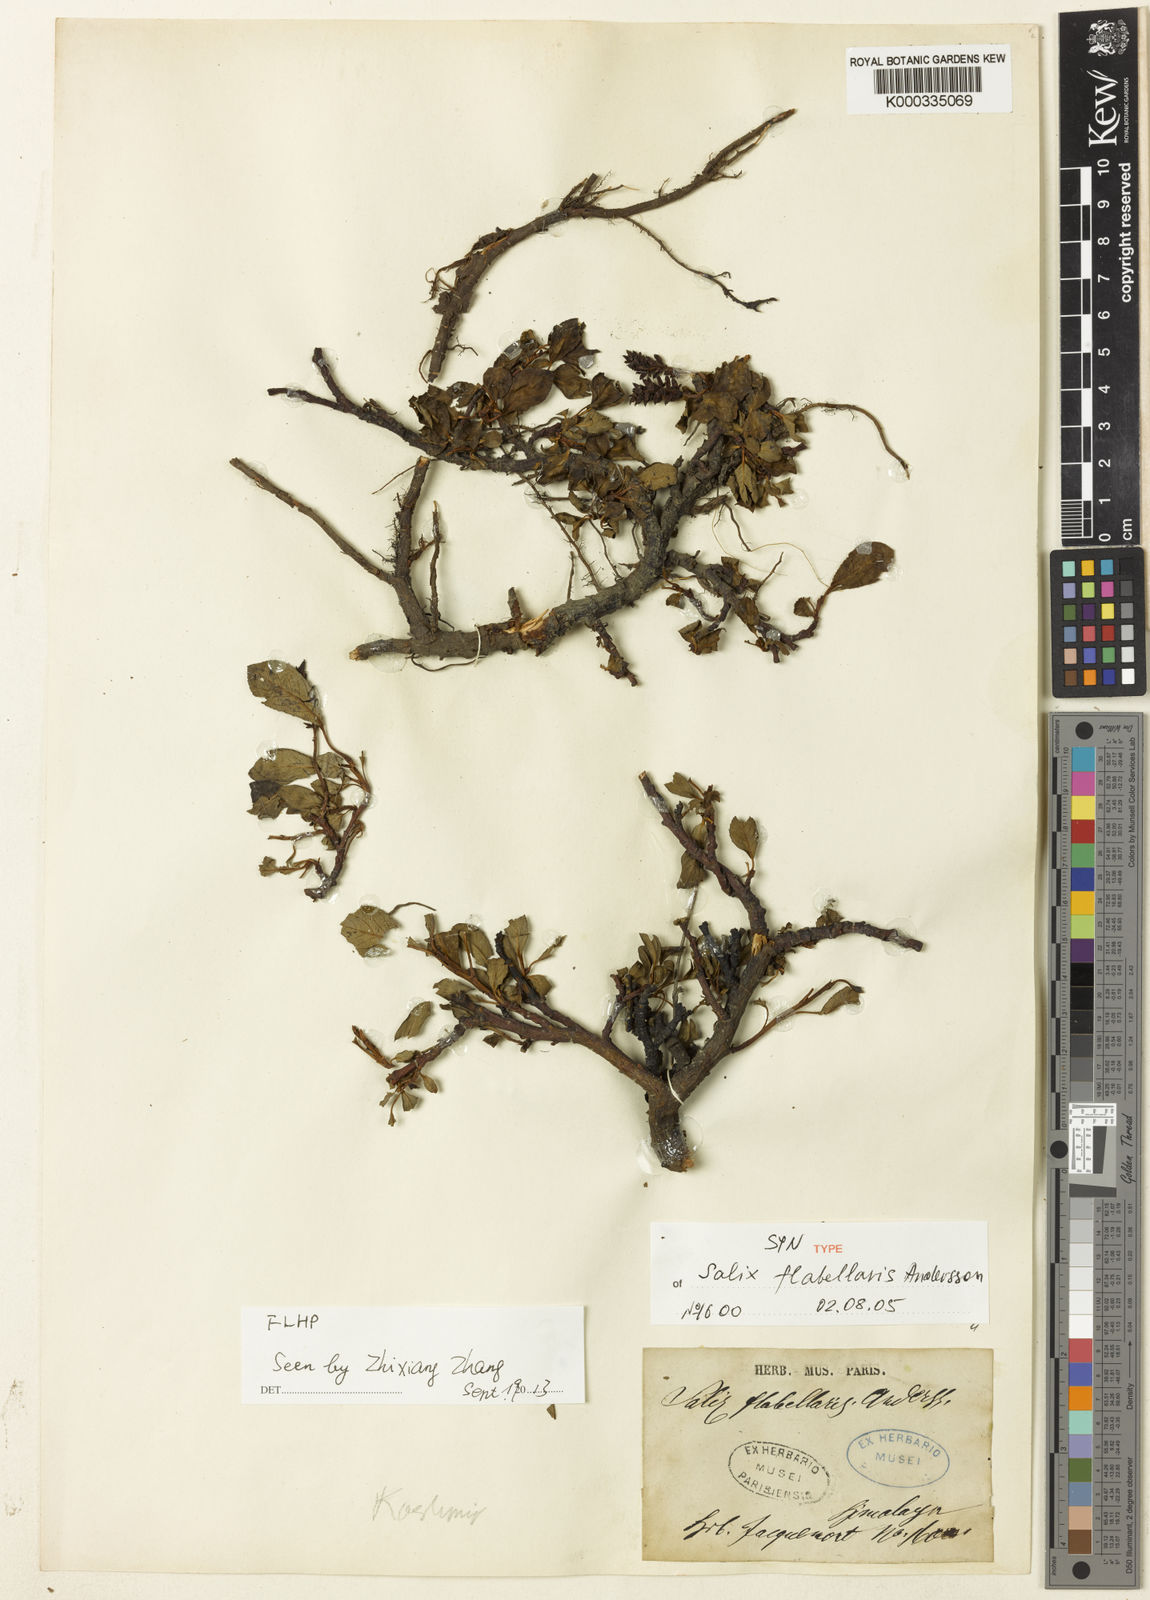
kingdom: Plantae
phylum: Tracheophyta
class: Magnoliopsida
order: Malpighiales
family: Salicaceae
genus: Salix
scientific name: Salix flabellaris
